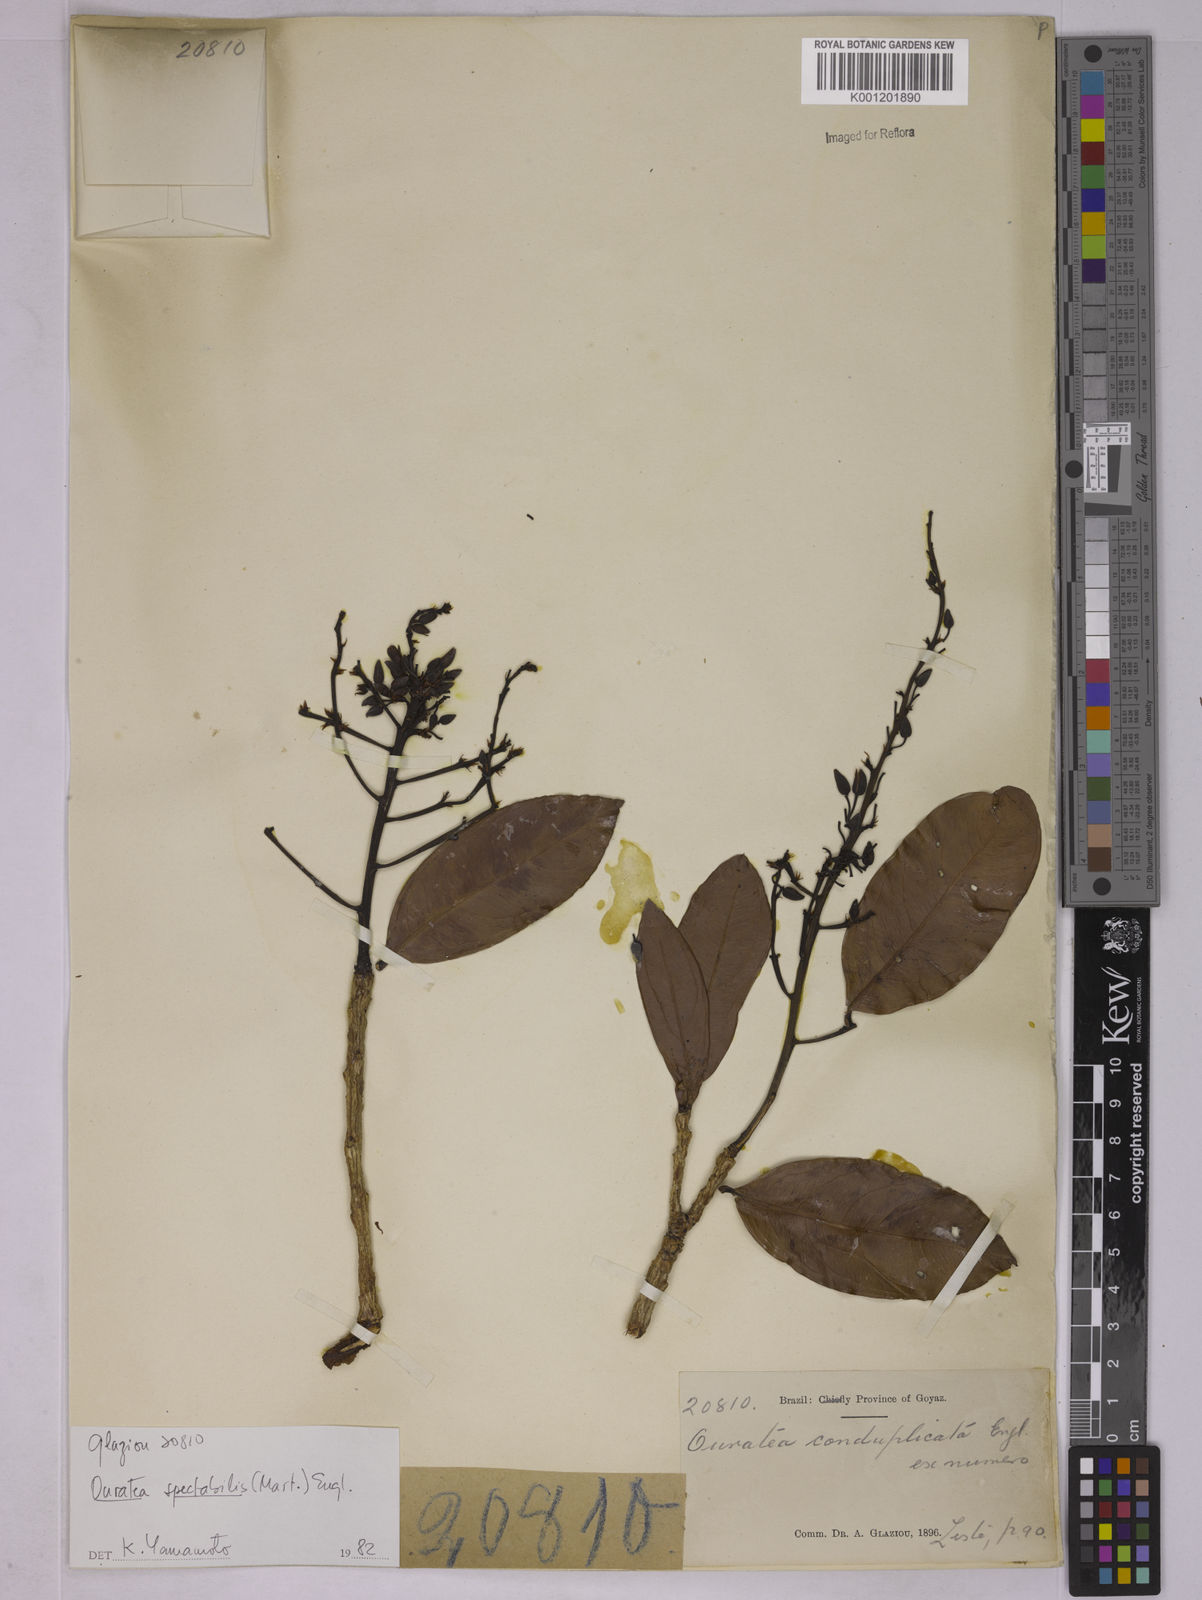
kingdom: Plantae
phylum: Tracheophyta
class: Magnoliopsida
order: Malpighiales
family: Ochnaceae
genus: Ouratea
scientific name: Ouratea spectabilis
